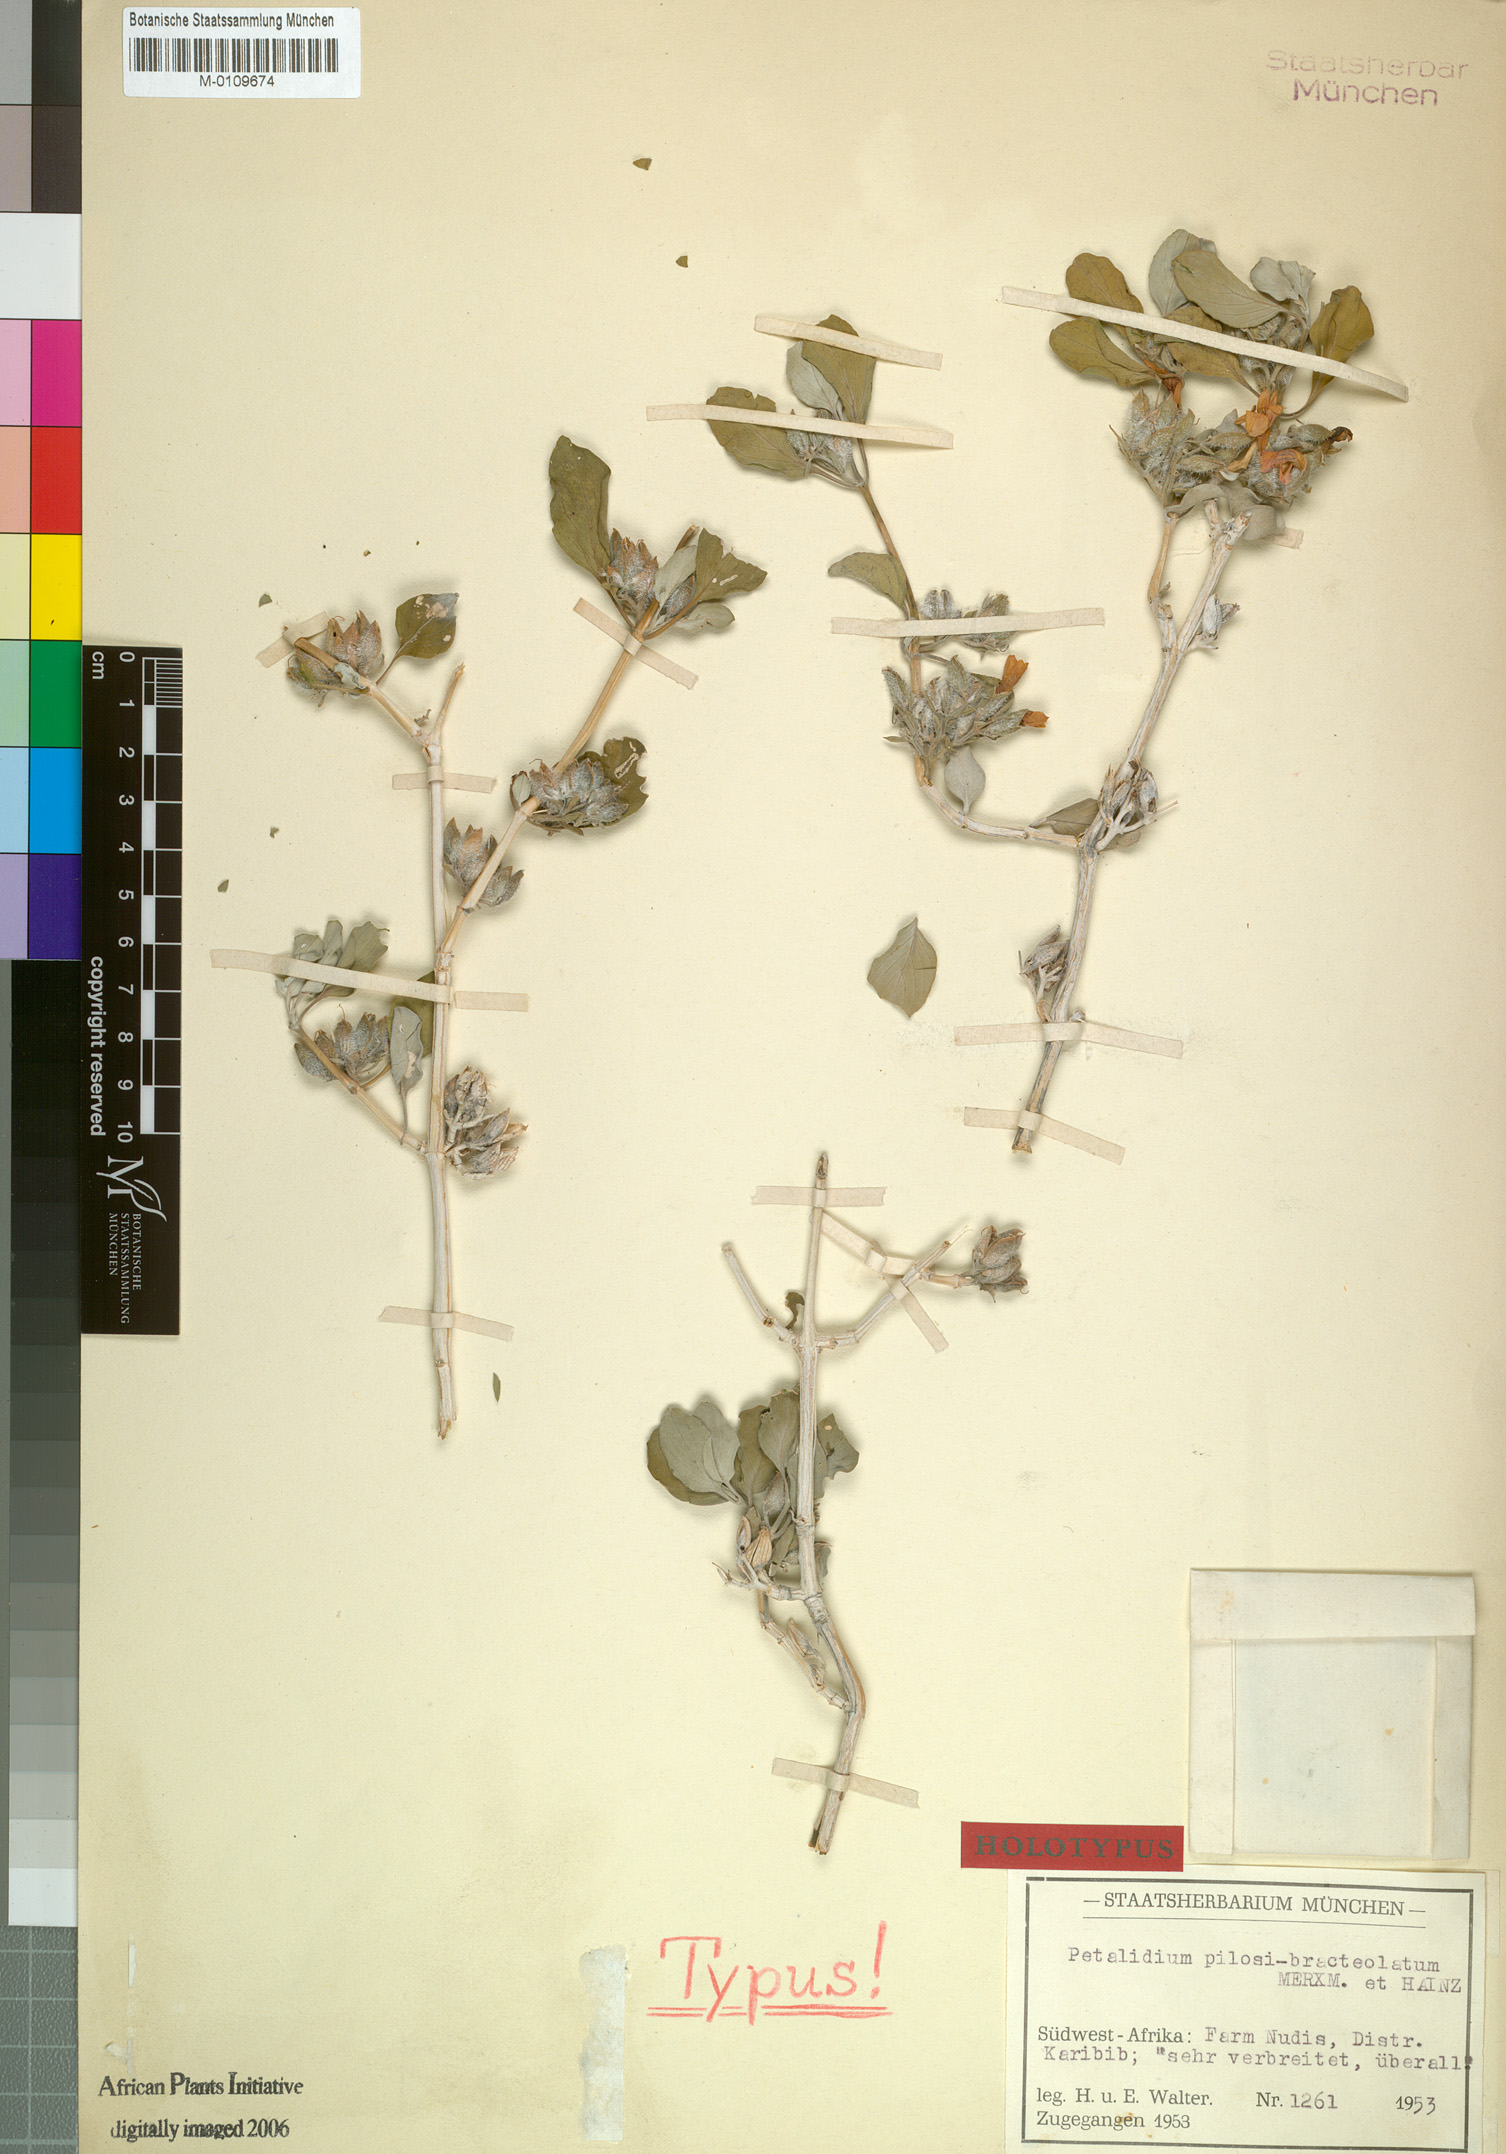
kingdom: Plantae
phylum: Tracheophyta
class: Magnoliopsida
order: Lamiales
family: Acanthaceae
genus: Petalidium
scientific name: Petalidium pilosibracteolatum
